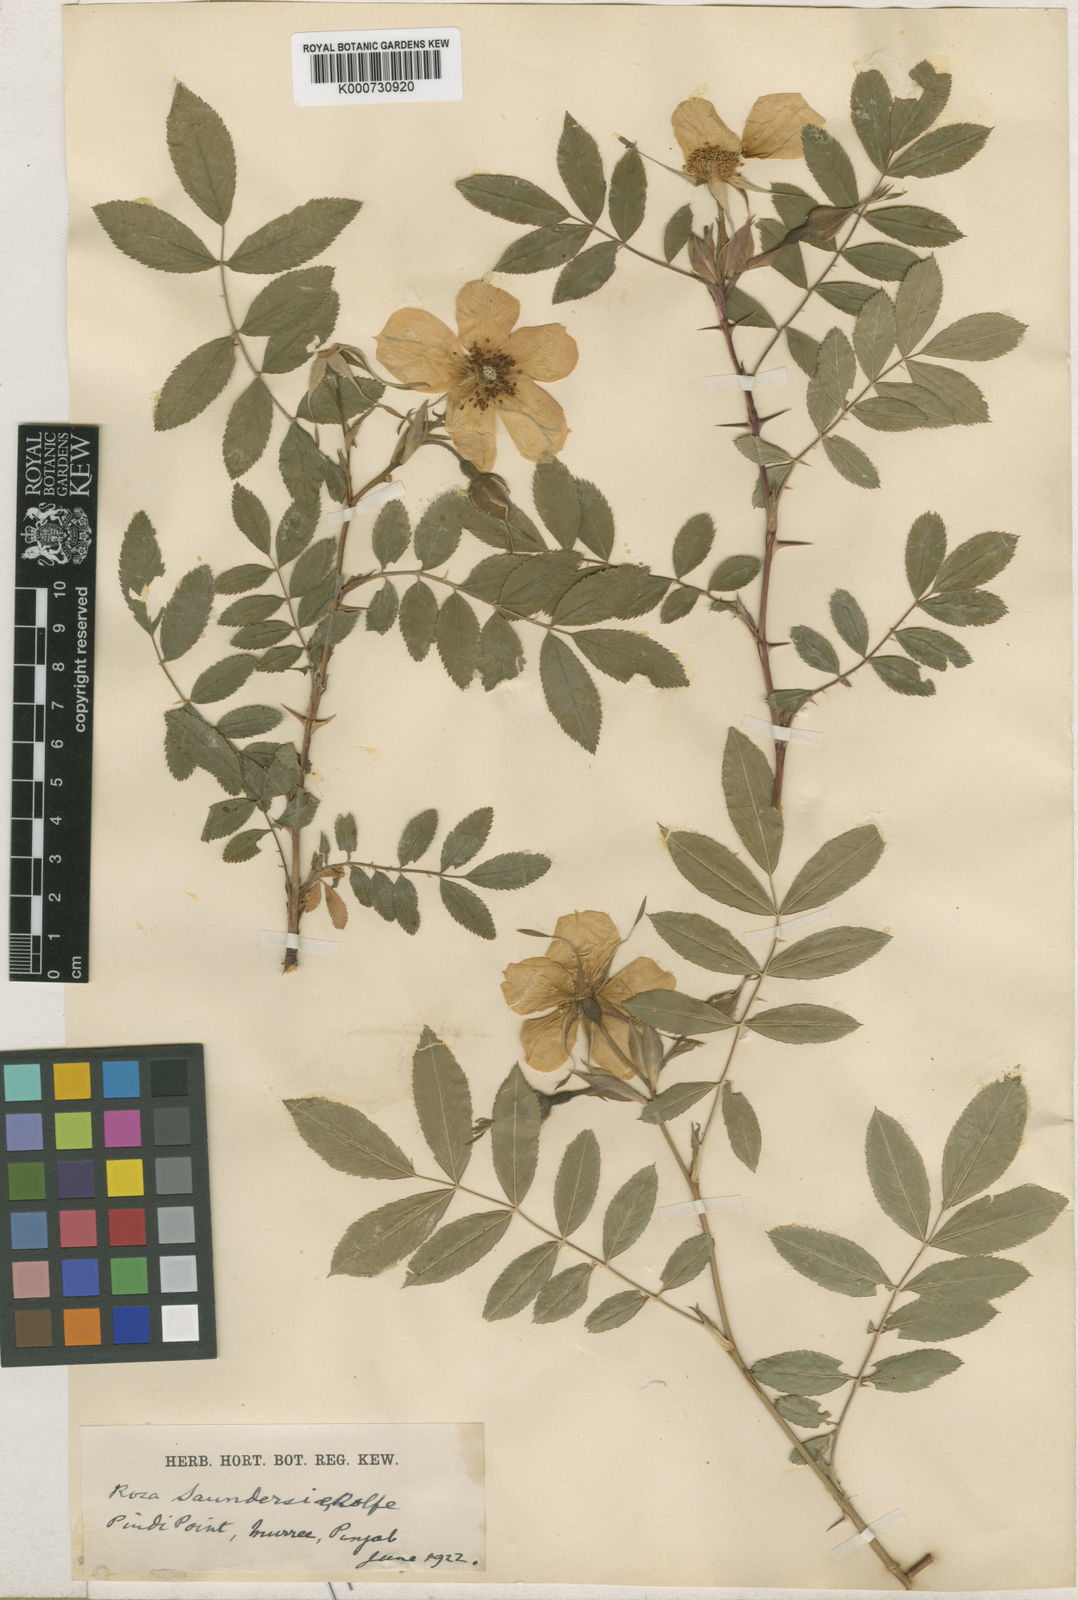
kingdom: Plantae
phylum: Tracheophyta
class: Magnoliopsida
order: Rosales
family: Rosaceae
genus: Rosa
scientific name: Rosa saundersiae
